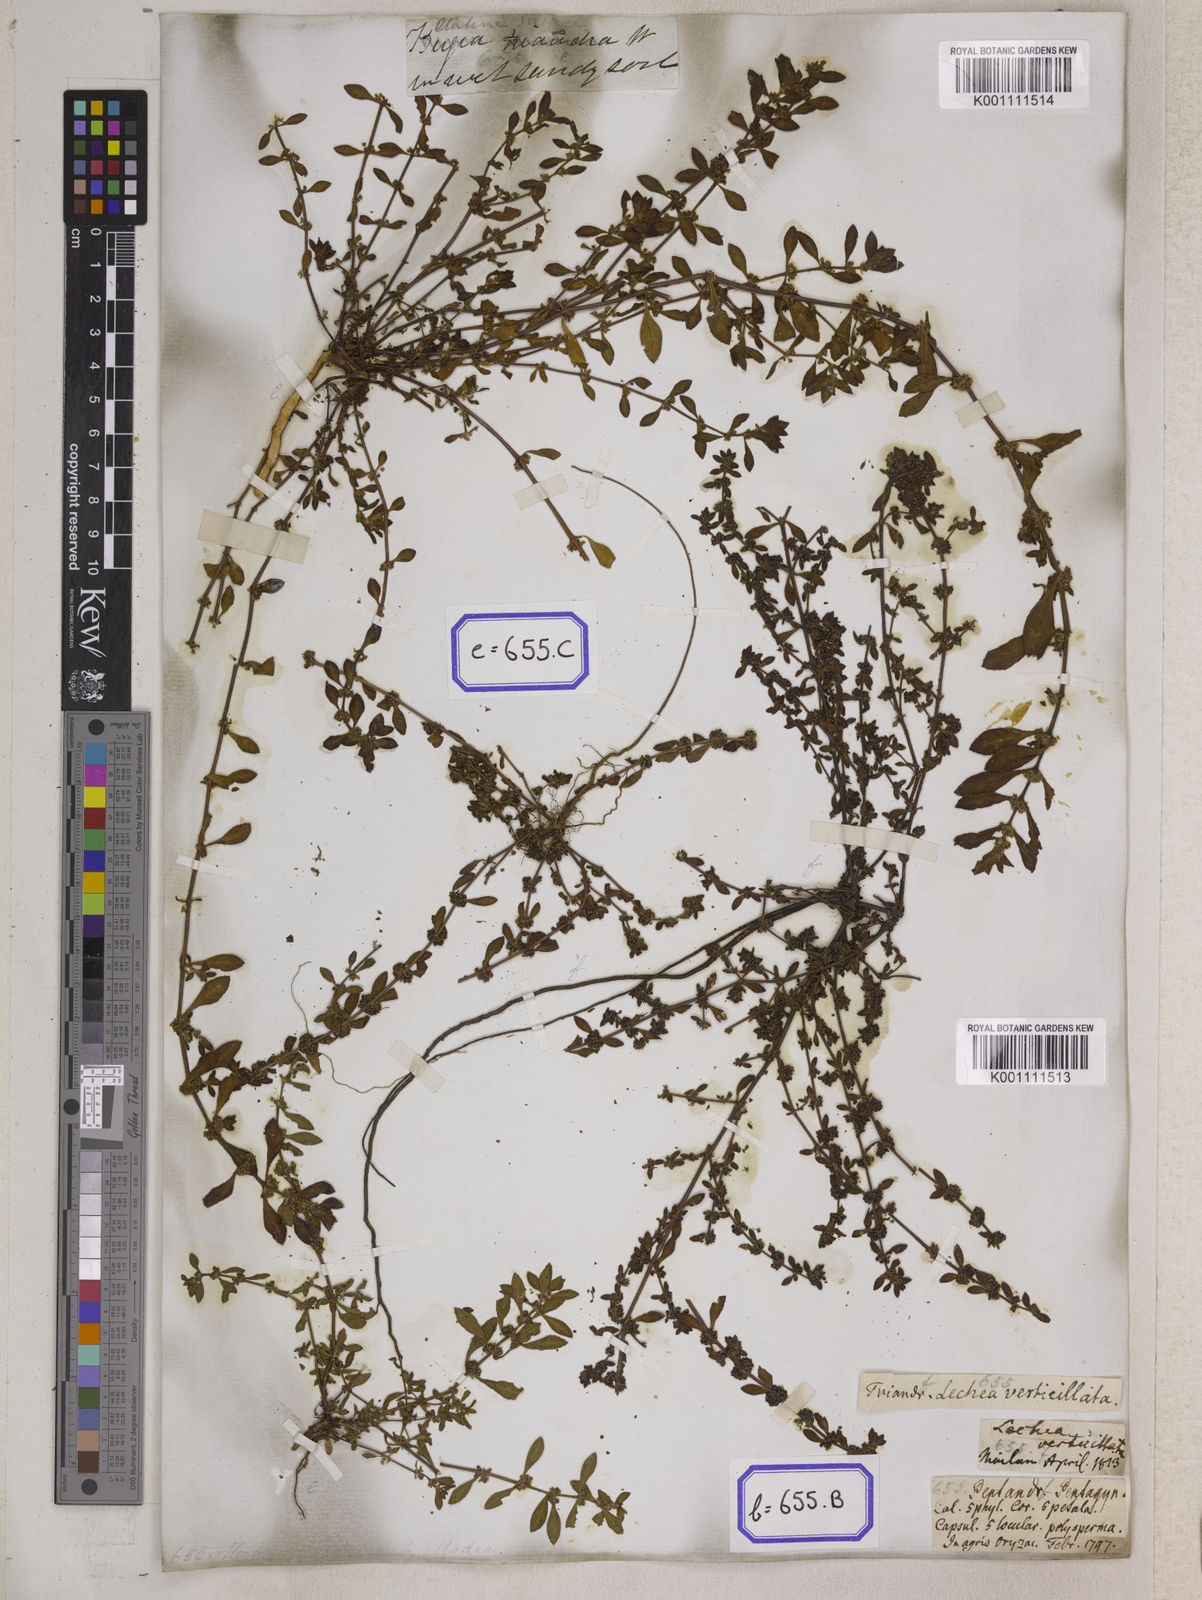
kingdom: Plantae
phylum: Tracheophyta
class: Magnoliopsida
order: Malpighiales
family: Elatinaceae
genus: Bergia
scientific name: Bergia ammannioides
